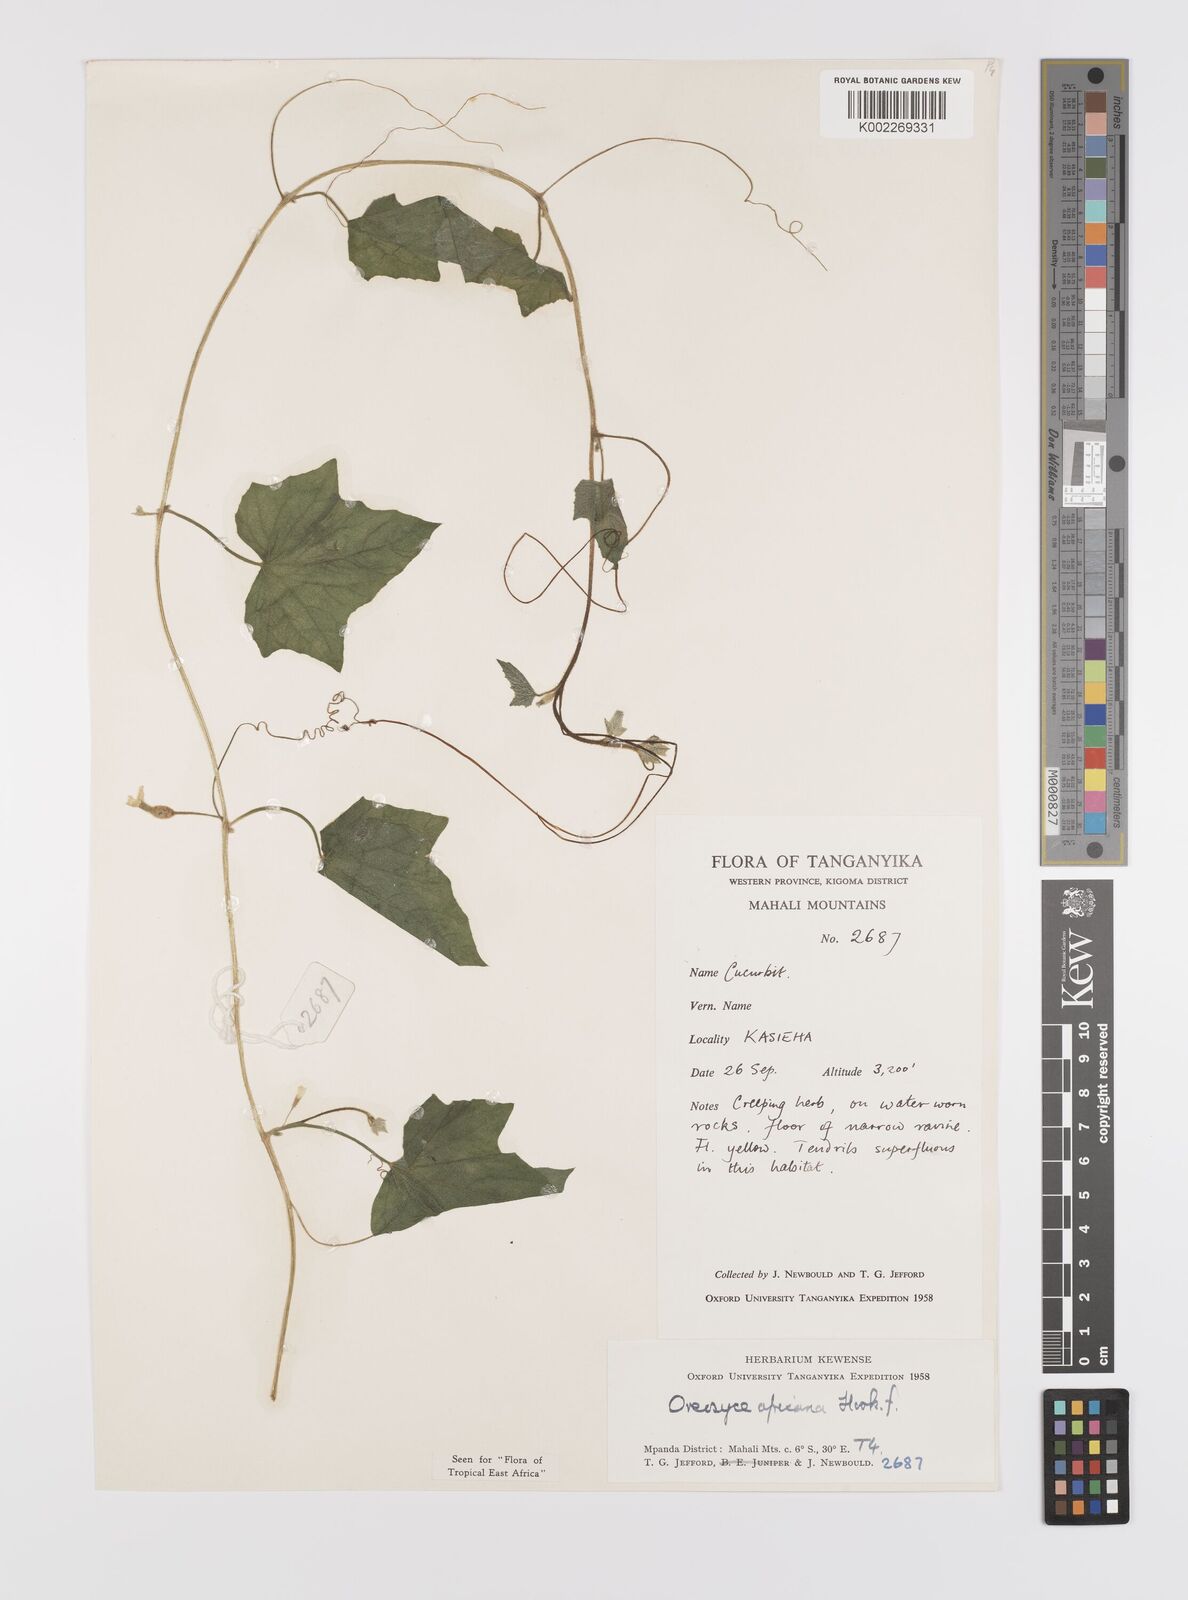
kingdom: Plantae
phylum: Tracheophyta
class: Magnoliopsida
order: Cucurbitales
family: Cucurbitaceae
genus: Cucumis
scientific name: Cucumis oreosyce
